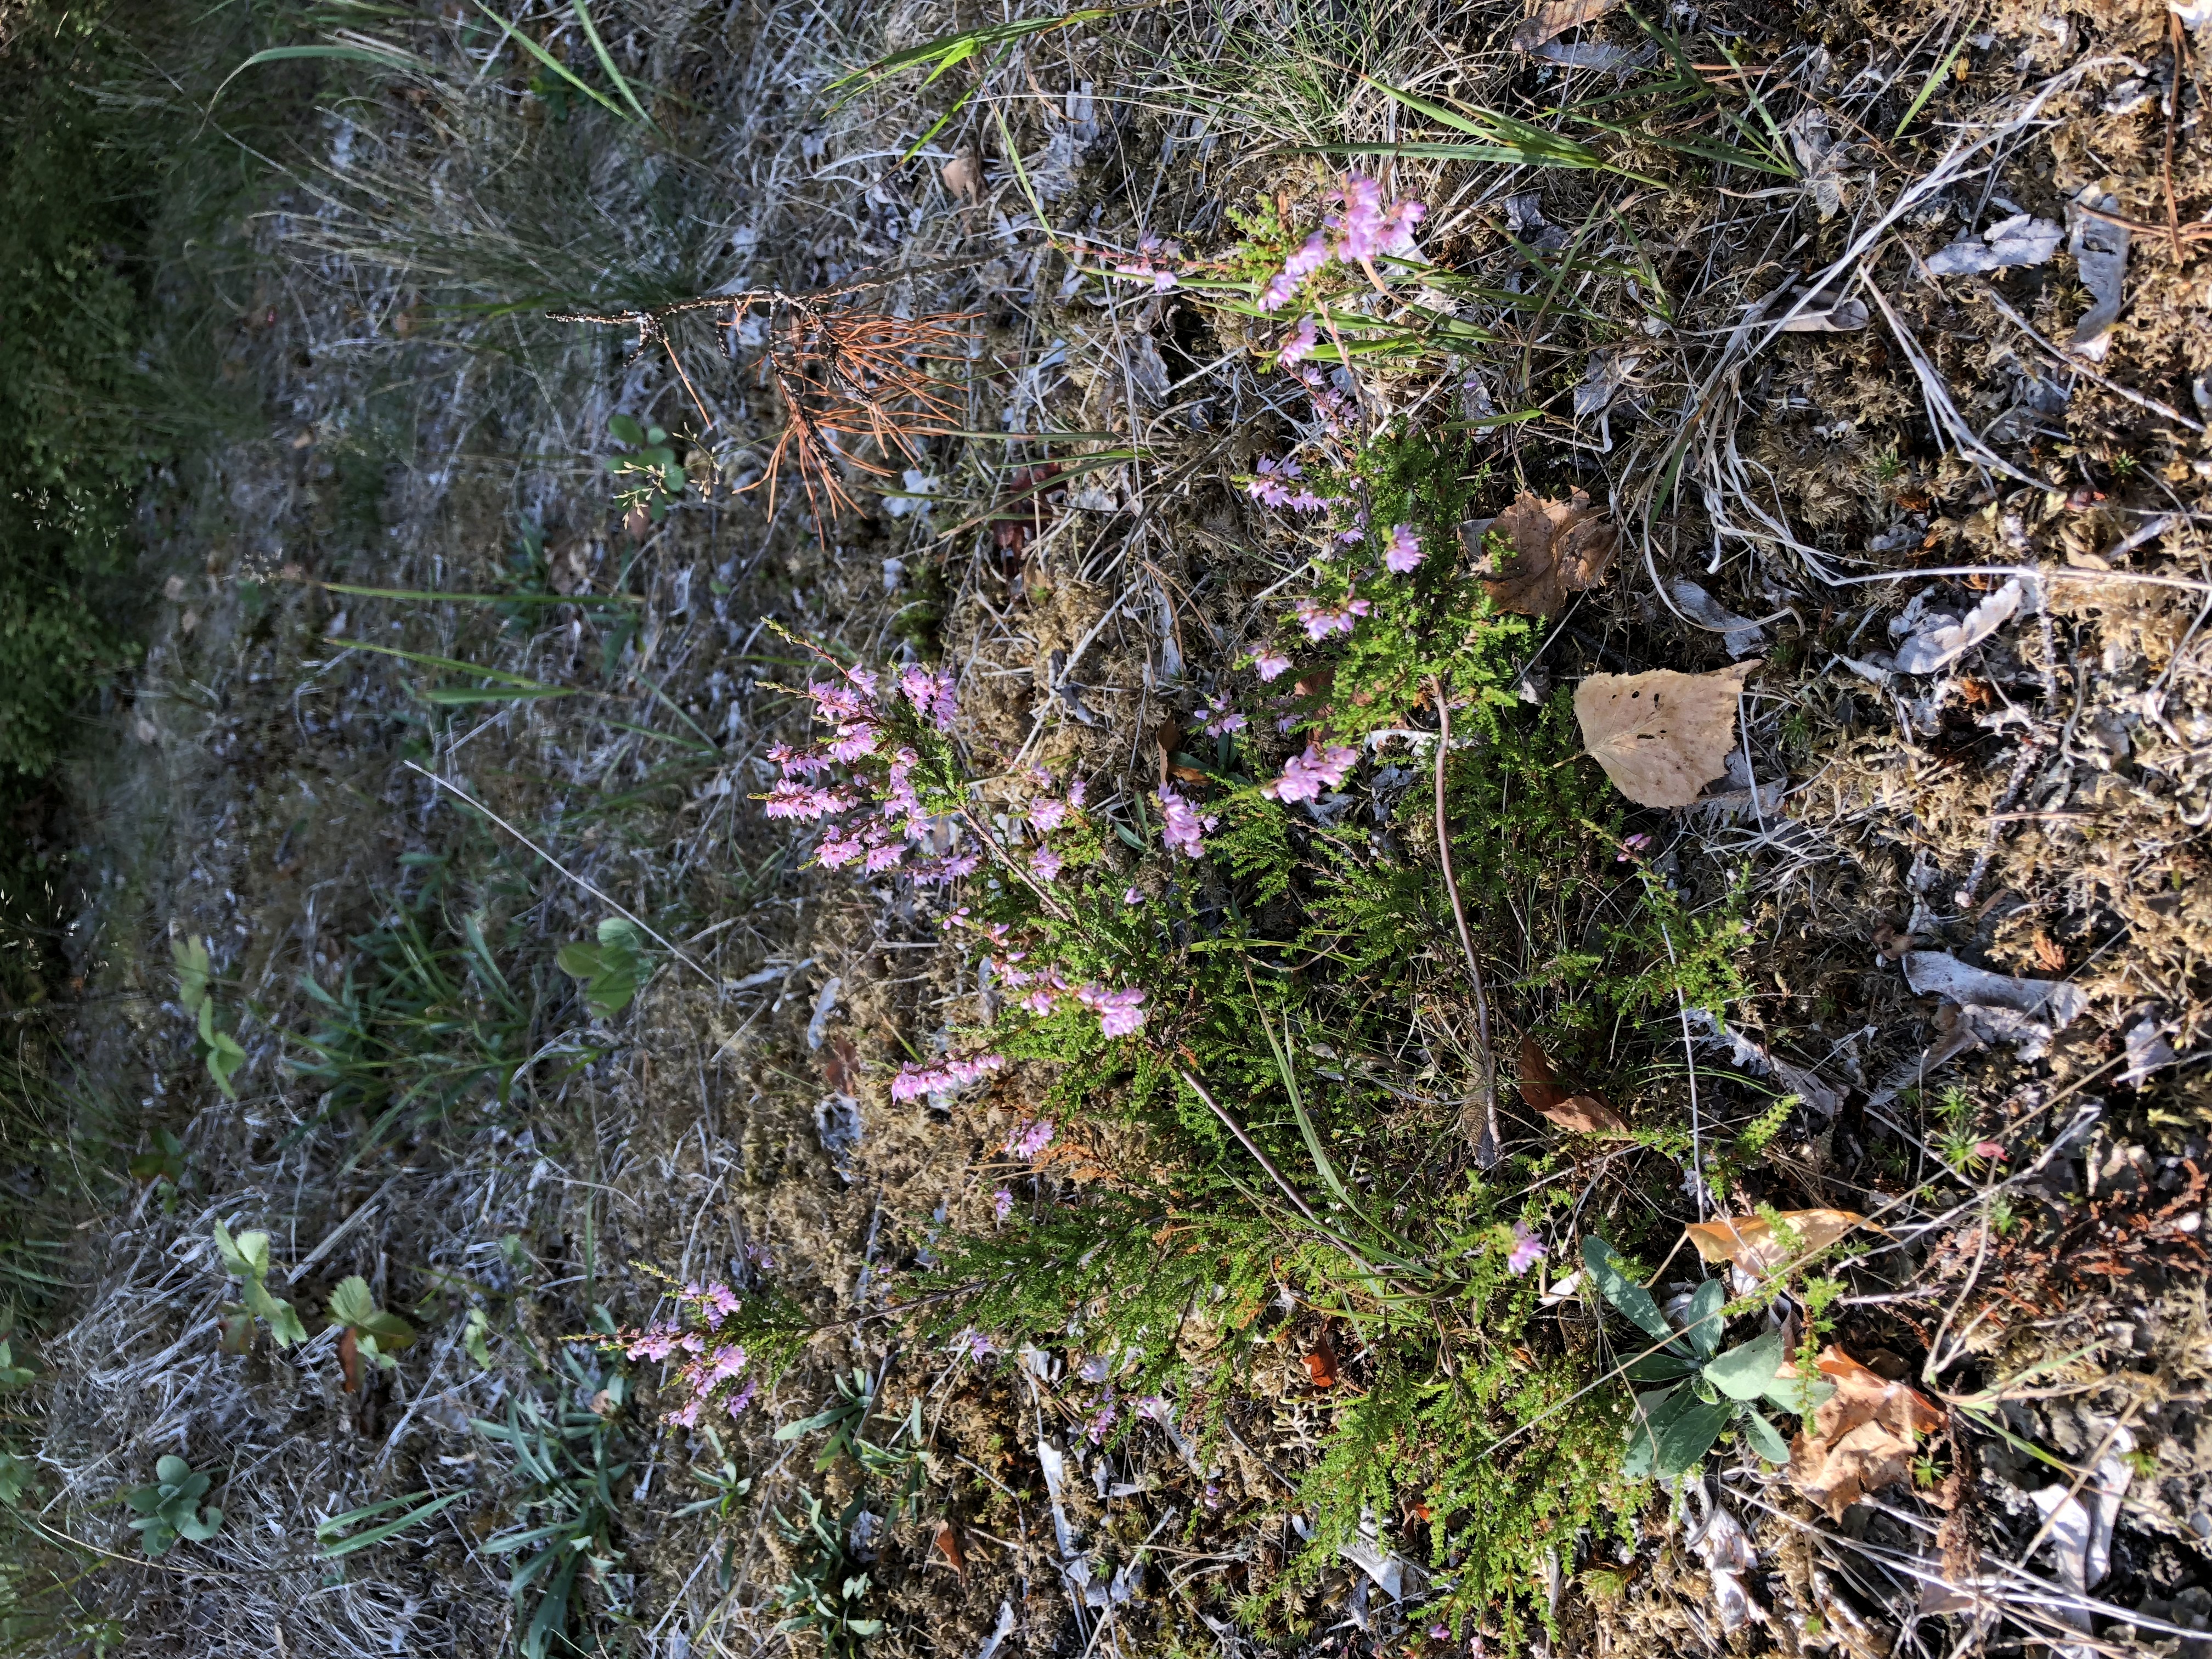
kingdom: Plantae
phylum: Tracheophyta
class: Magnoliopsida
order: Ericales
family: Ericaceae
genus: Calluna
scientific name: Calluna vulgaris
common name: Heather
